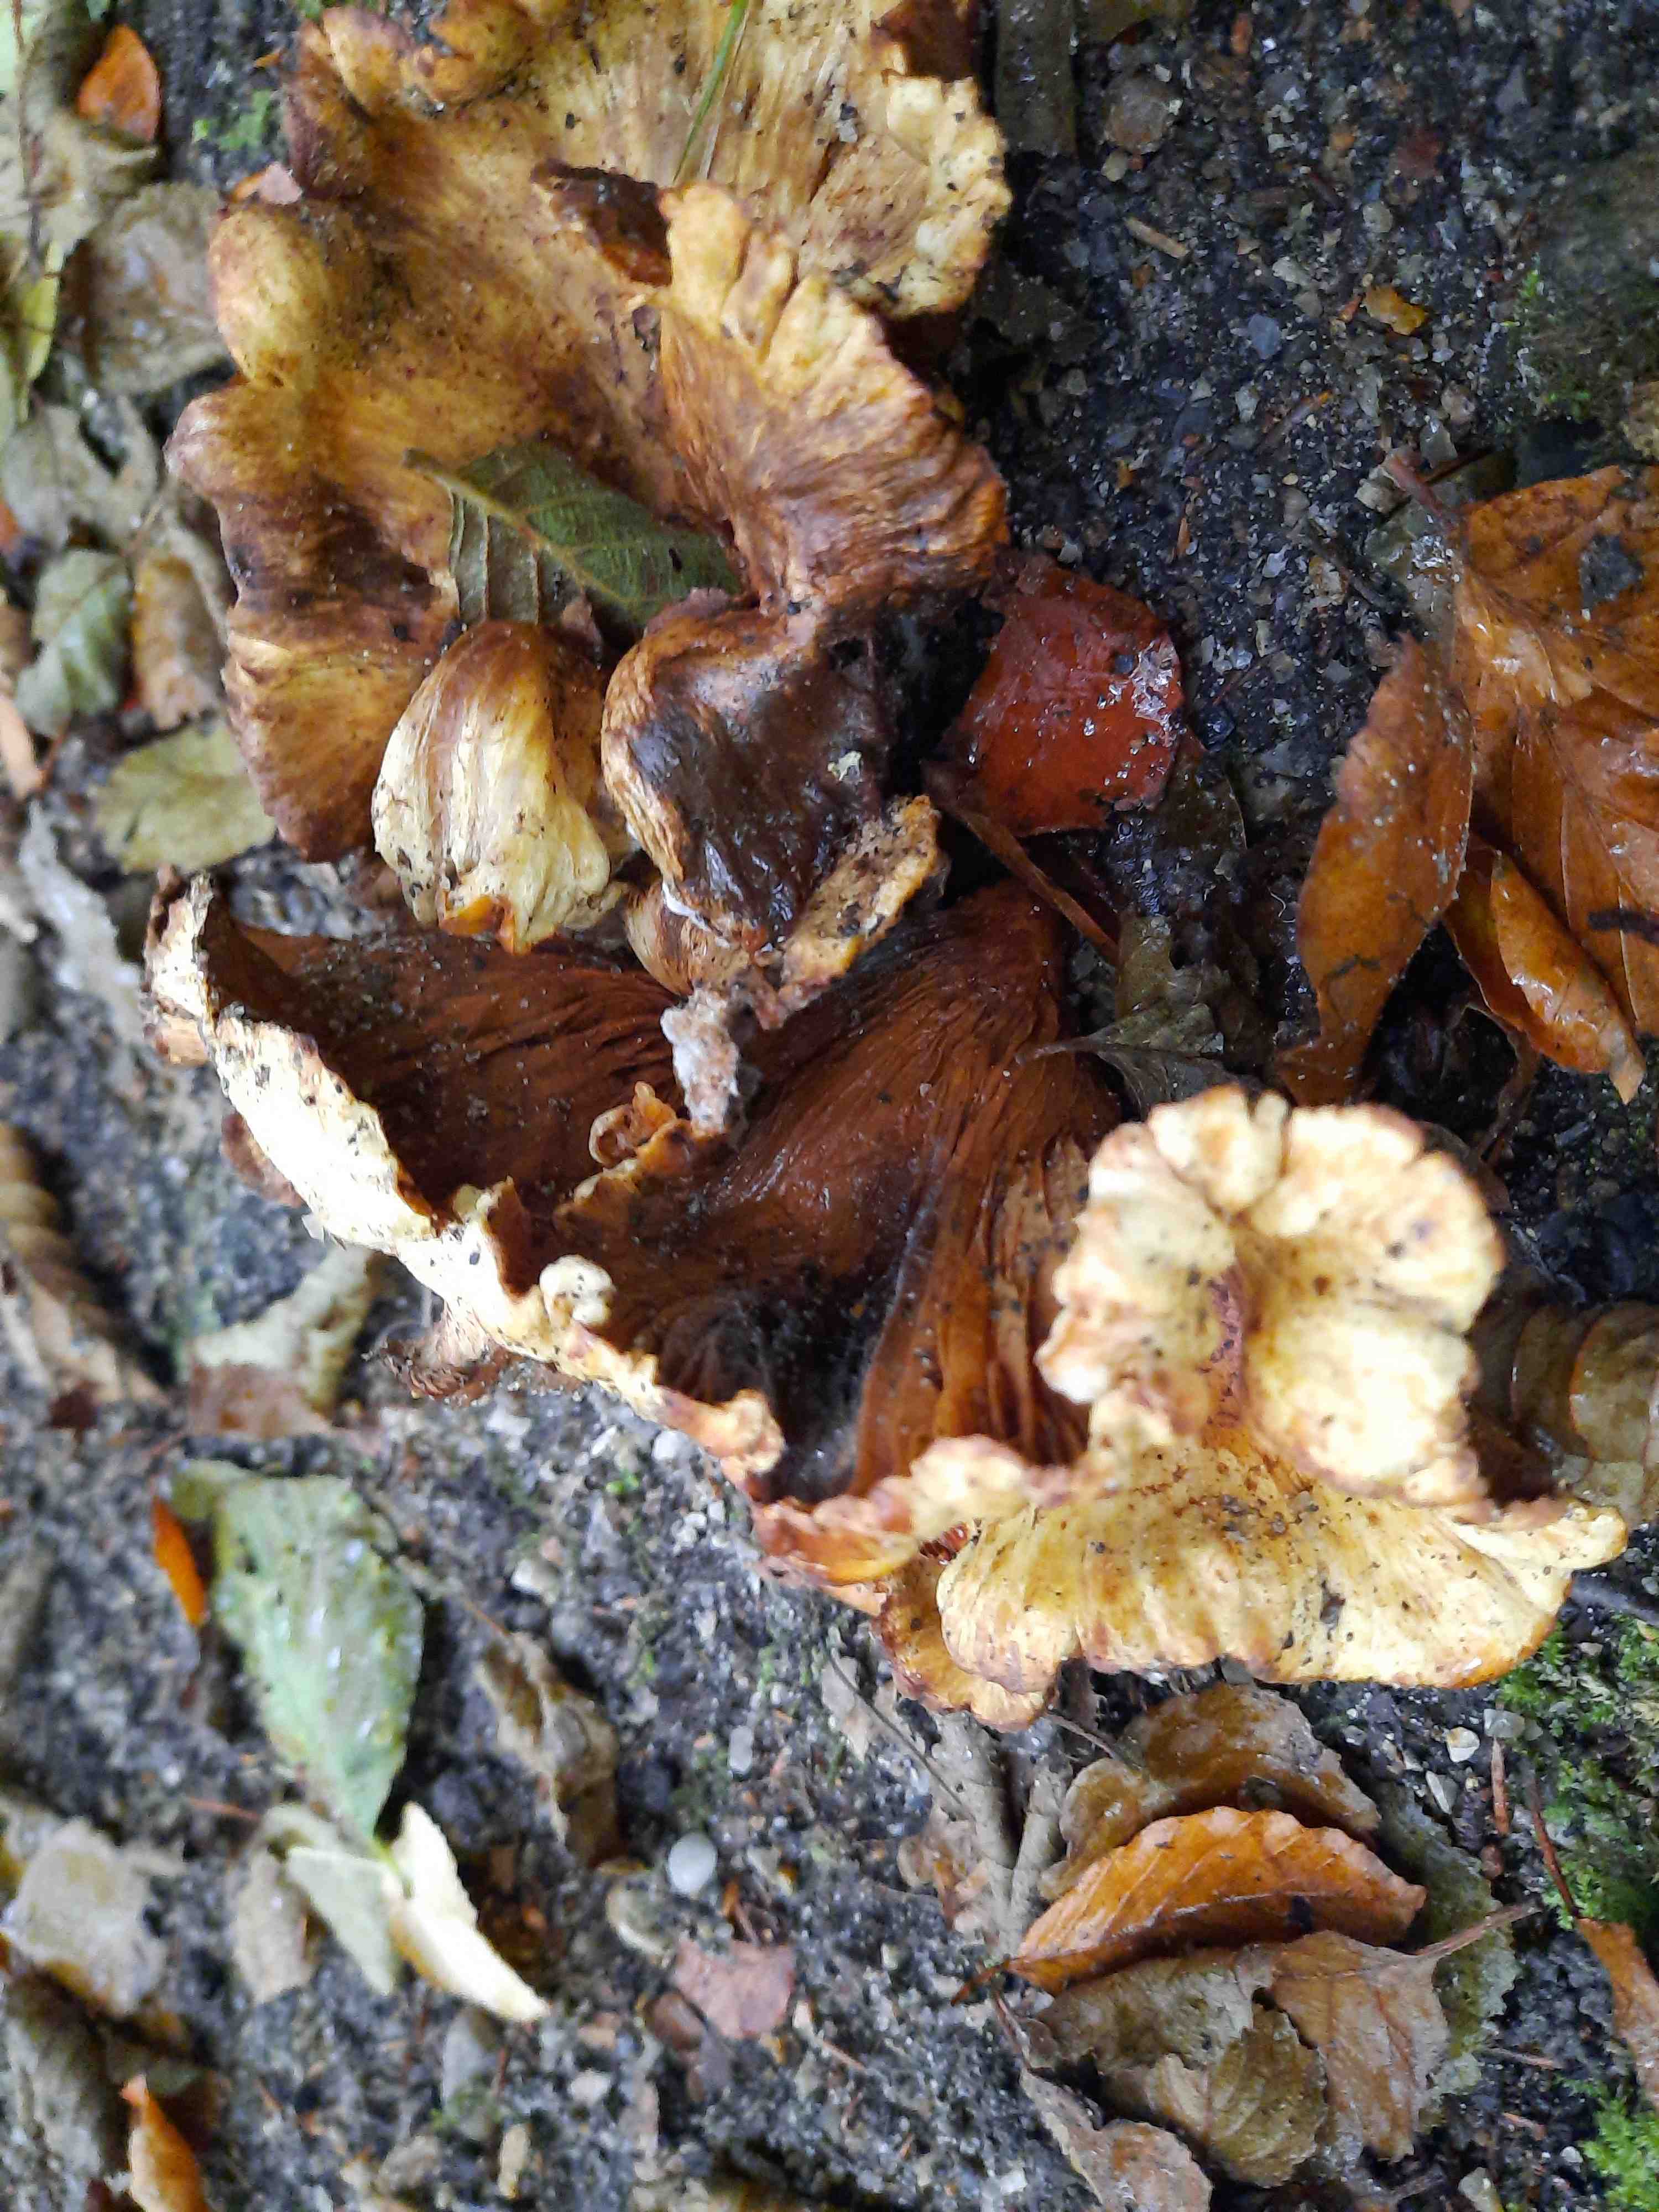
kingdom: Fungi
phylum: Basidiomycota
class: Agaricomycetes
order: Boletales
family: Paxillaceae
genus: Paxillus
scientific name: Paxillus rubicundulus
